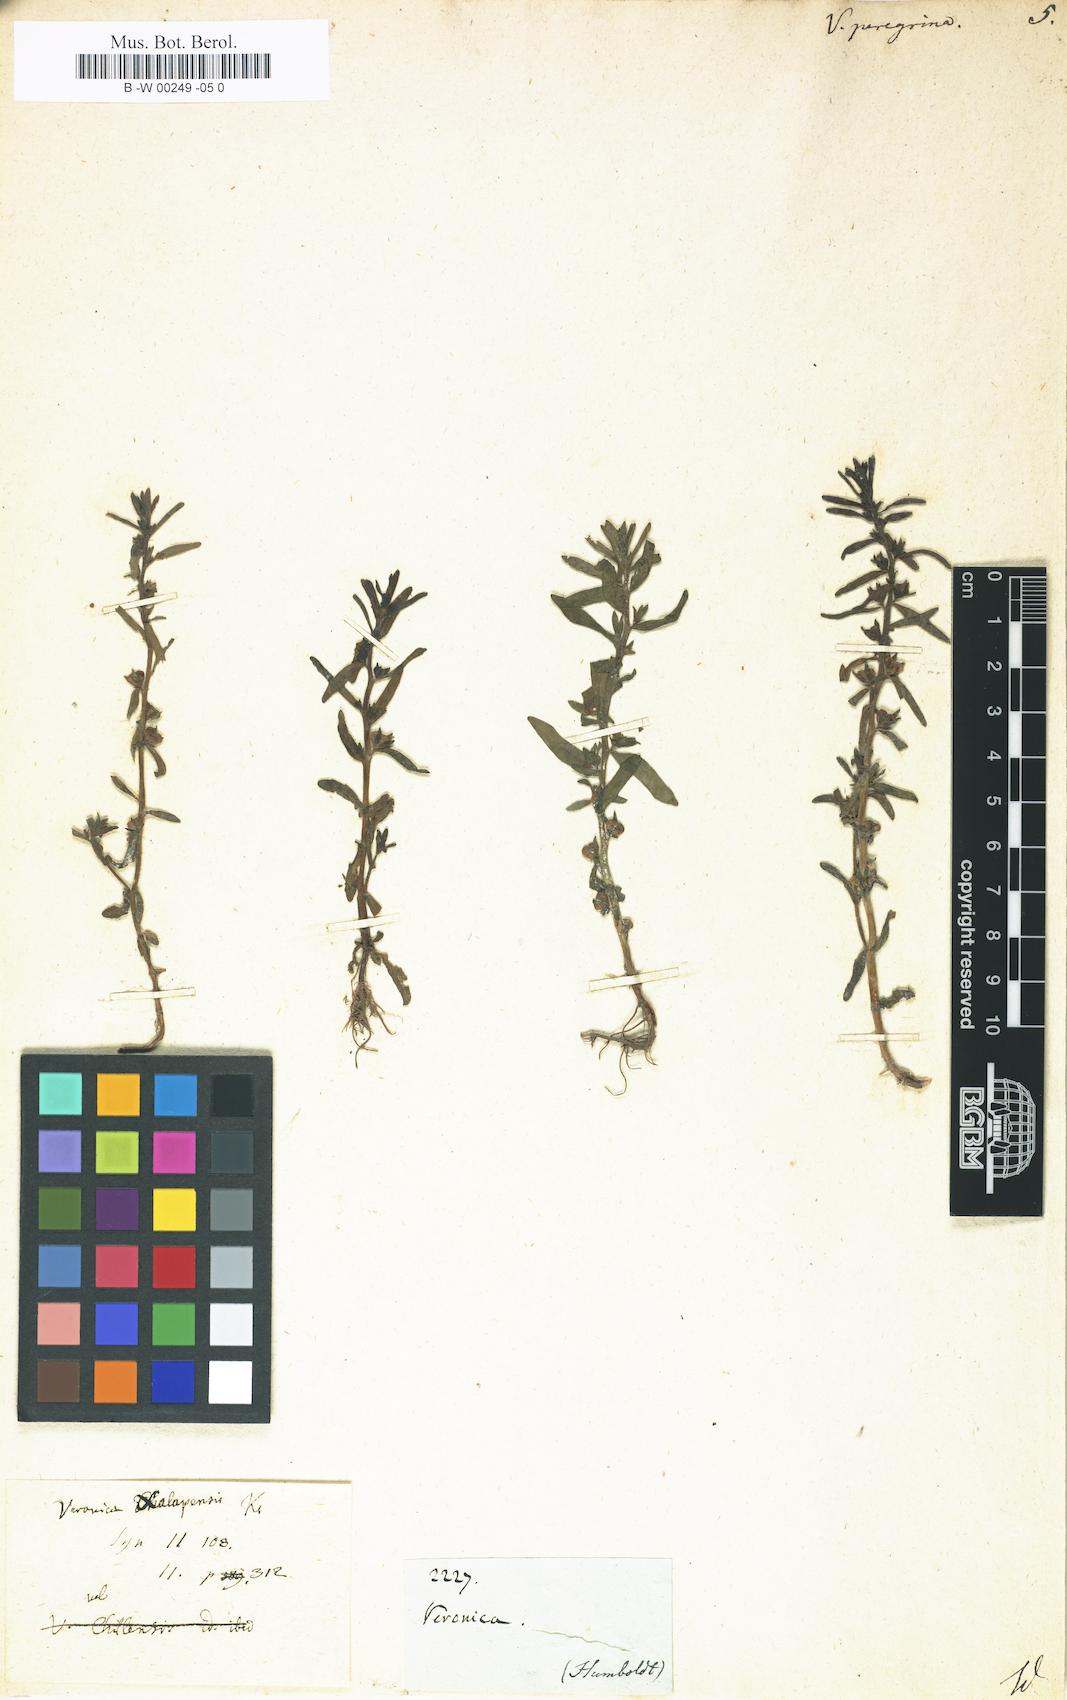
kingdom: Plantae
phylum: Tracheophyta
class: Magnoliopsida
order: Lamiales
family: Plantaginaceae
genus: Veronica
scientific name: Veronica peregrina
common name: Neckweed
